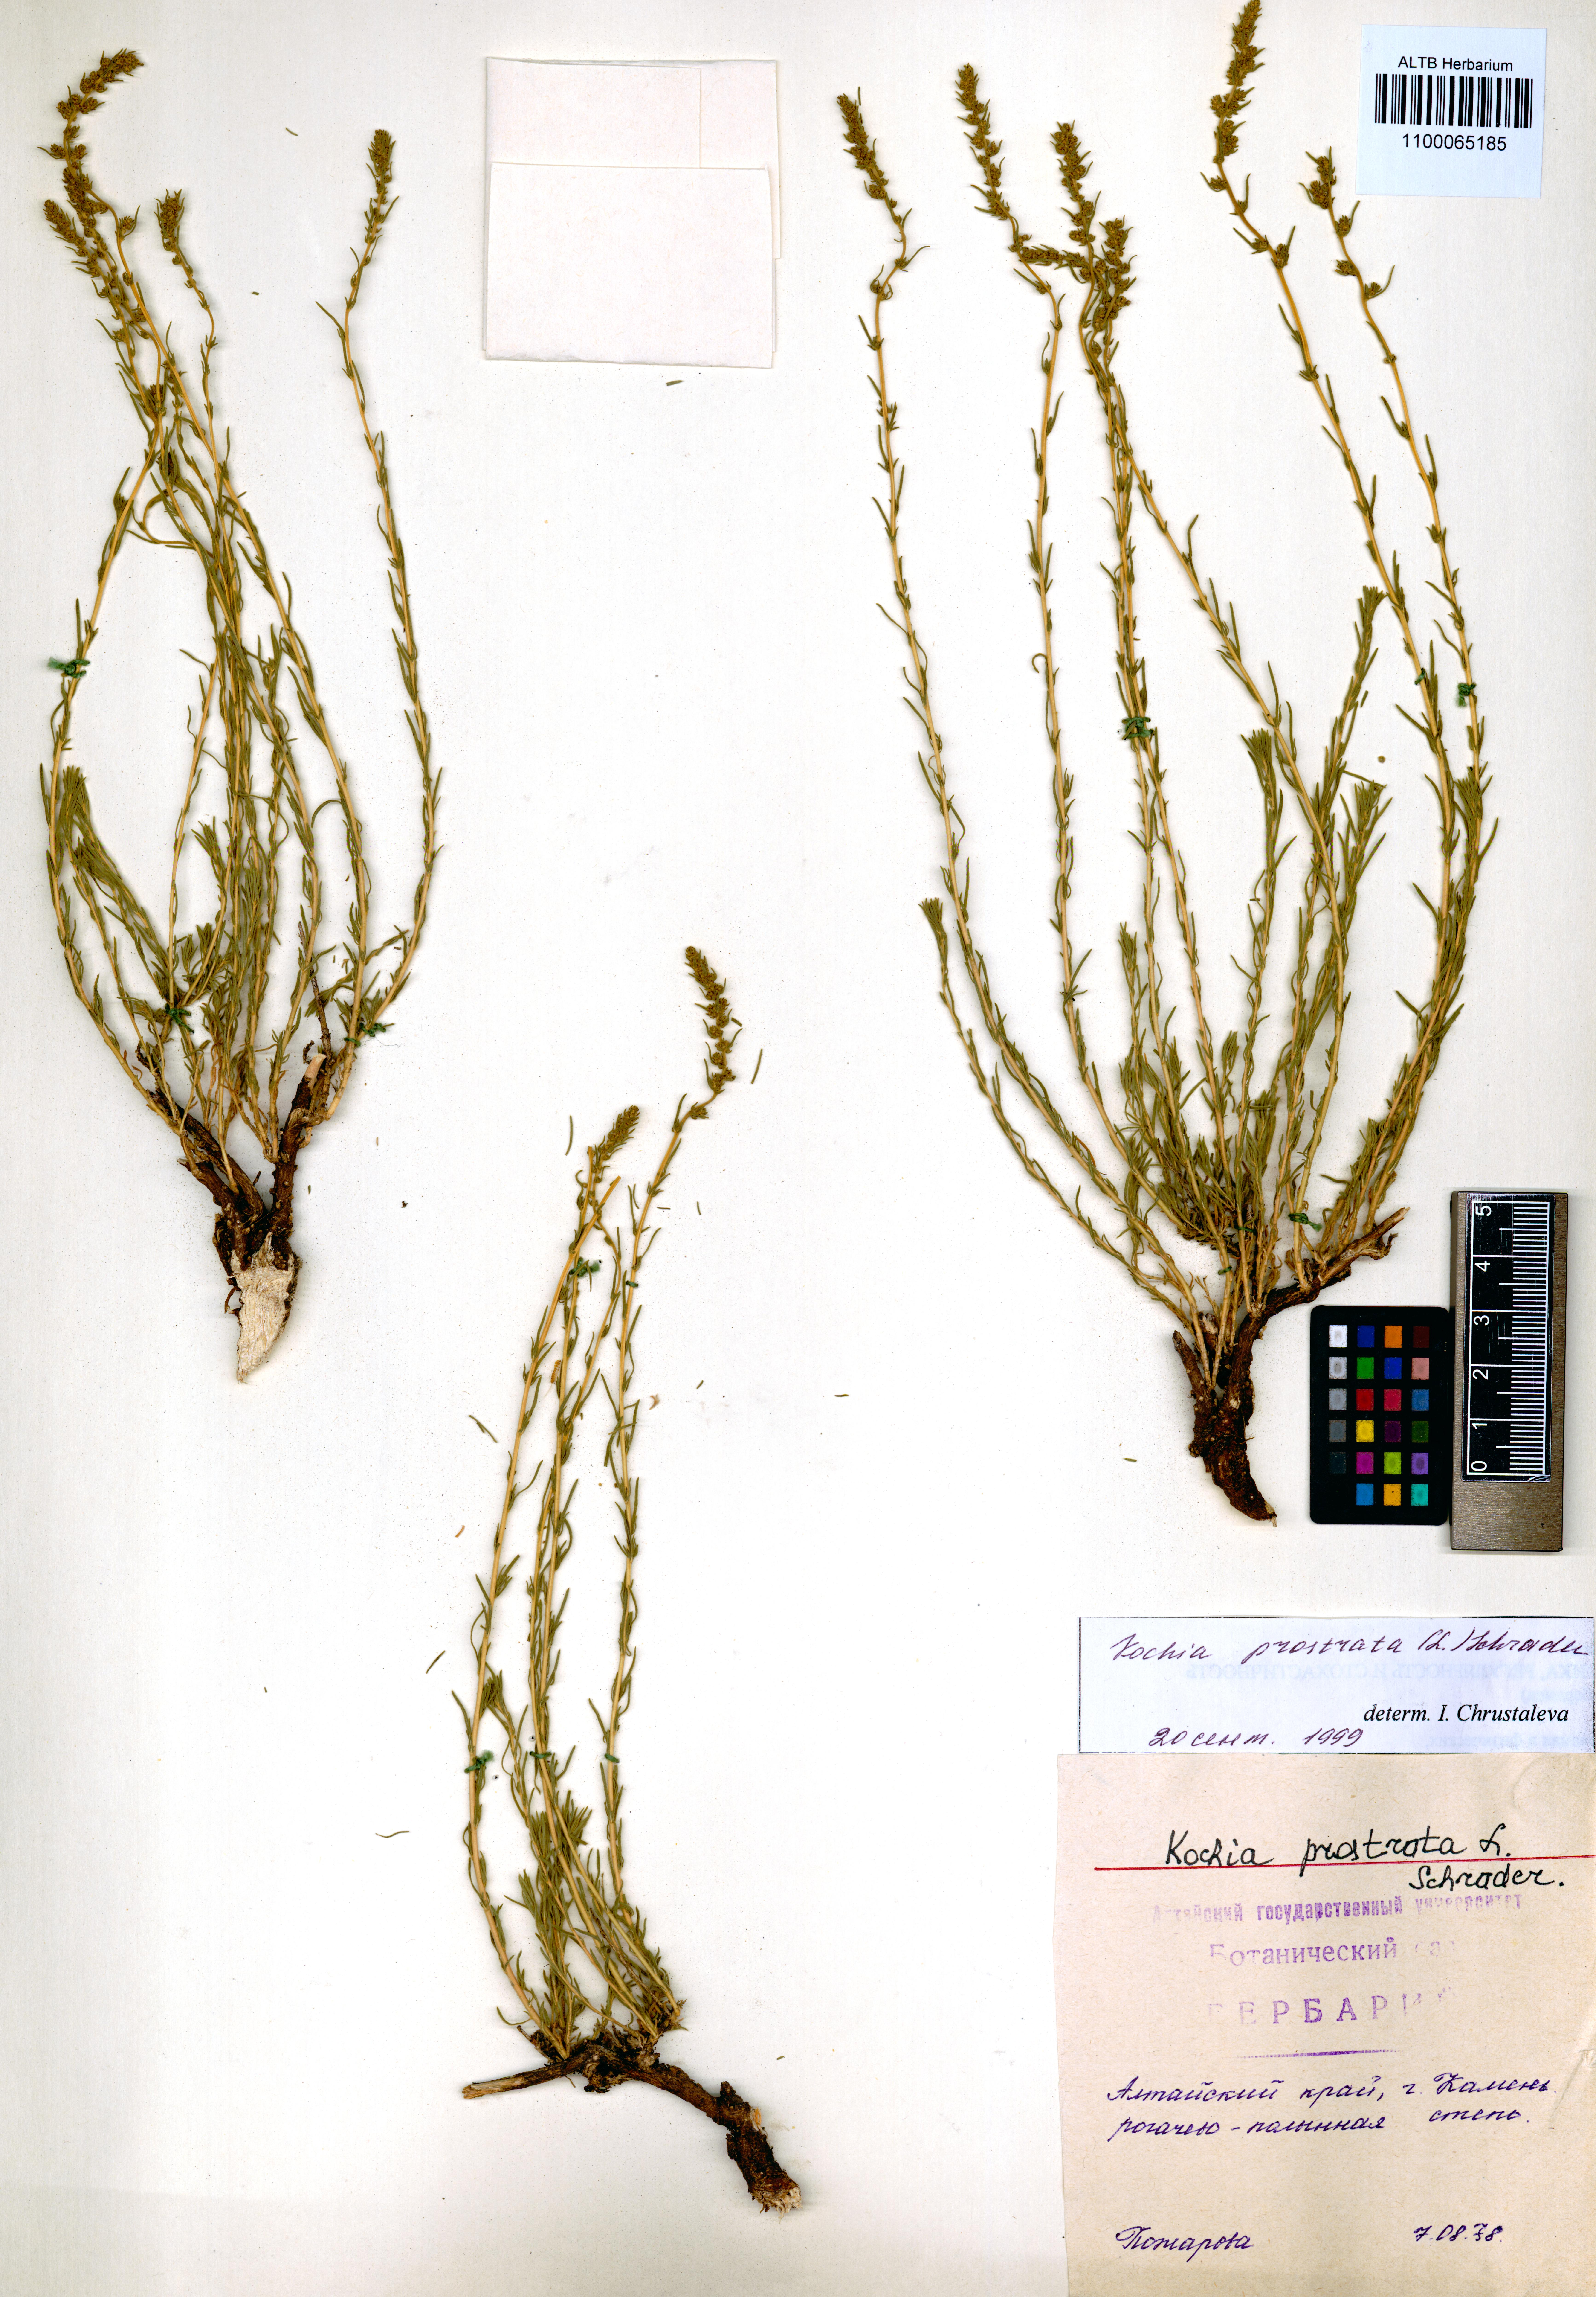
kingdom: Plantae
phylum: Tracheophyta
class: Magnoliopsida
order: Caryophyllales
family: Amaranthaceae
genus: Bassia
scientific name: Bassia prostrata
